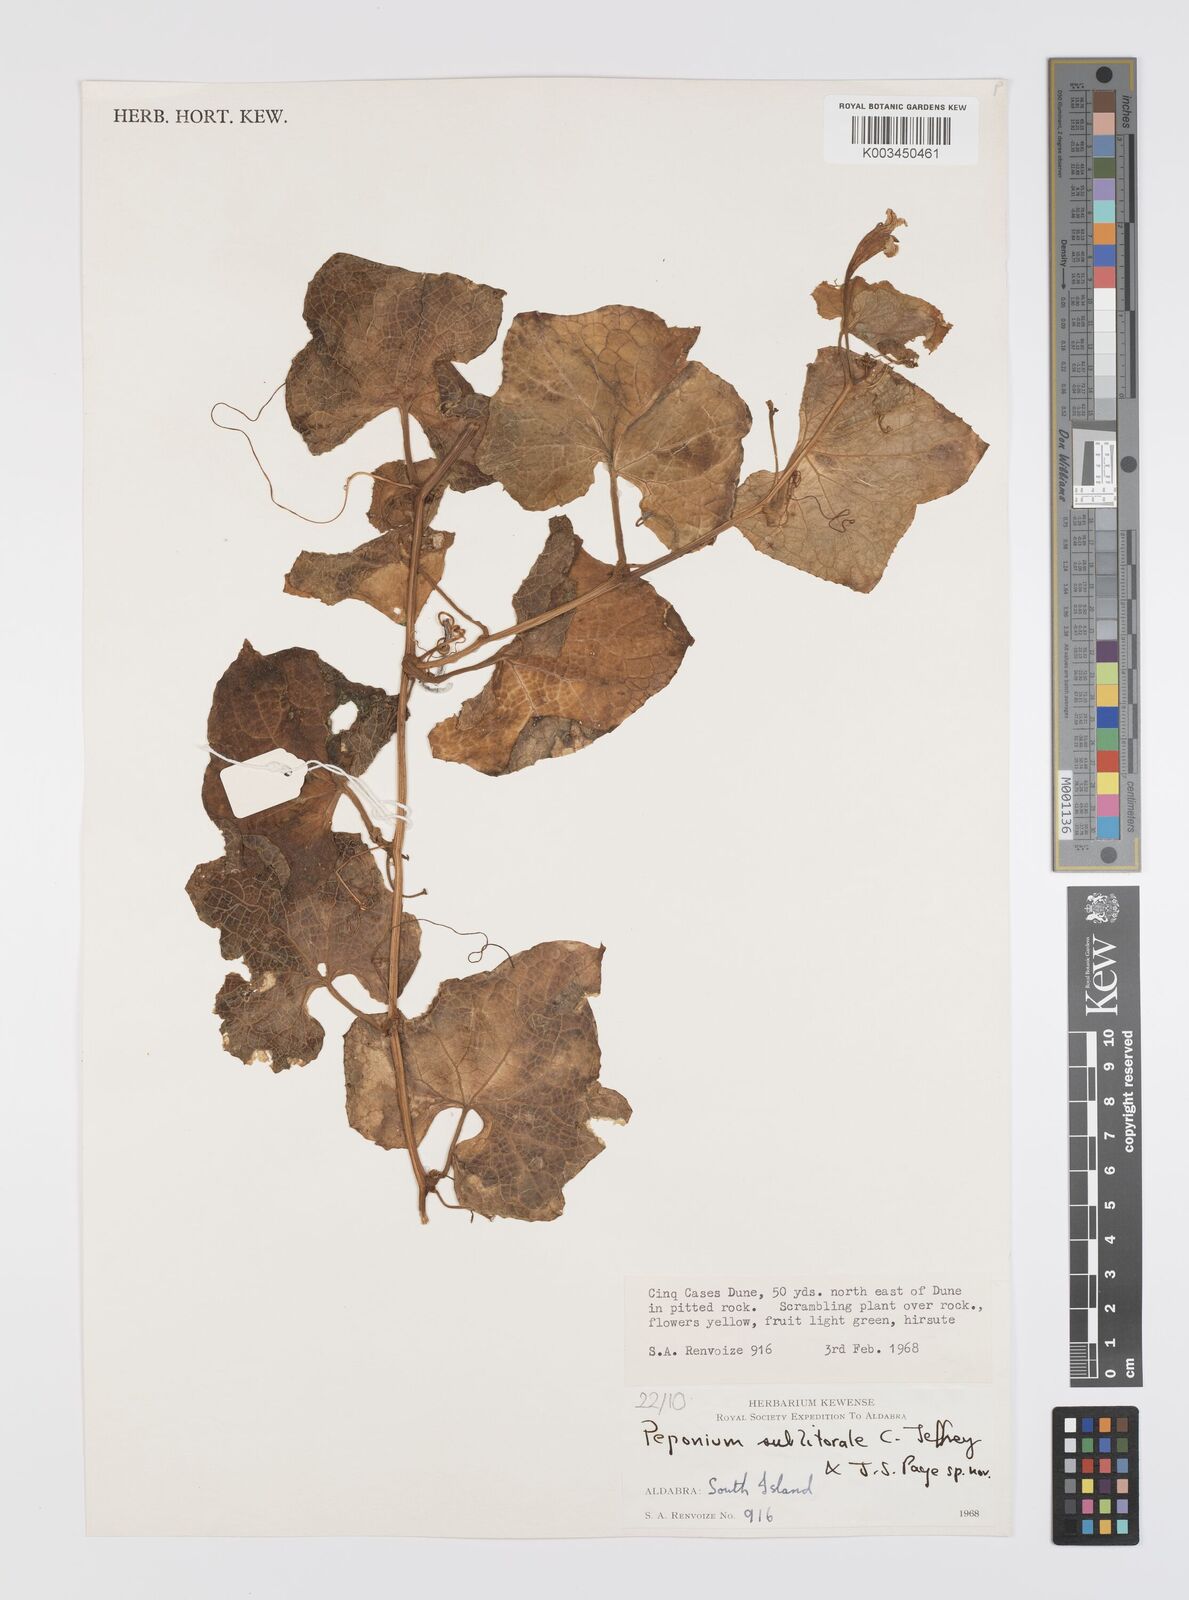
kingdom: Plantae
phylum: Tracheophyta
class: Magnoliopsida
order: Cucurbitales
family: Cucurbitaceae
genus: Peponium
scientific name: Peponium sublitorale
